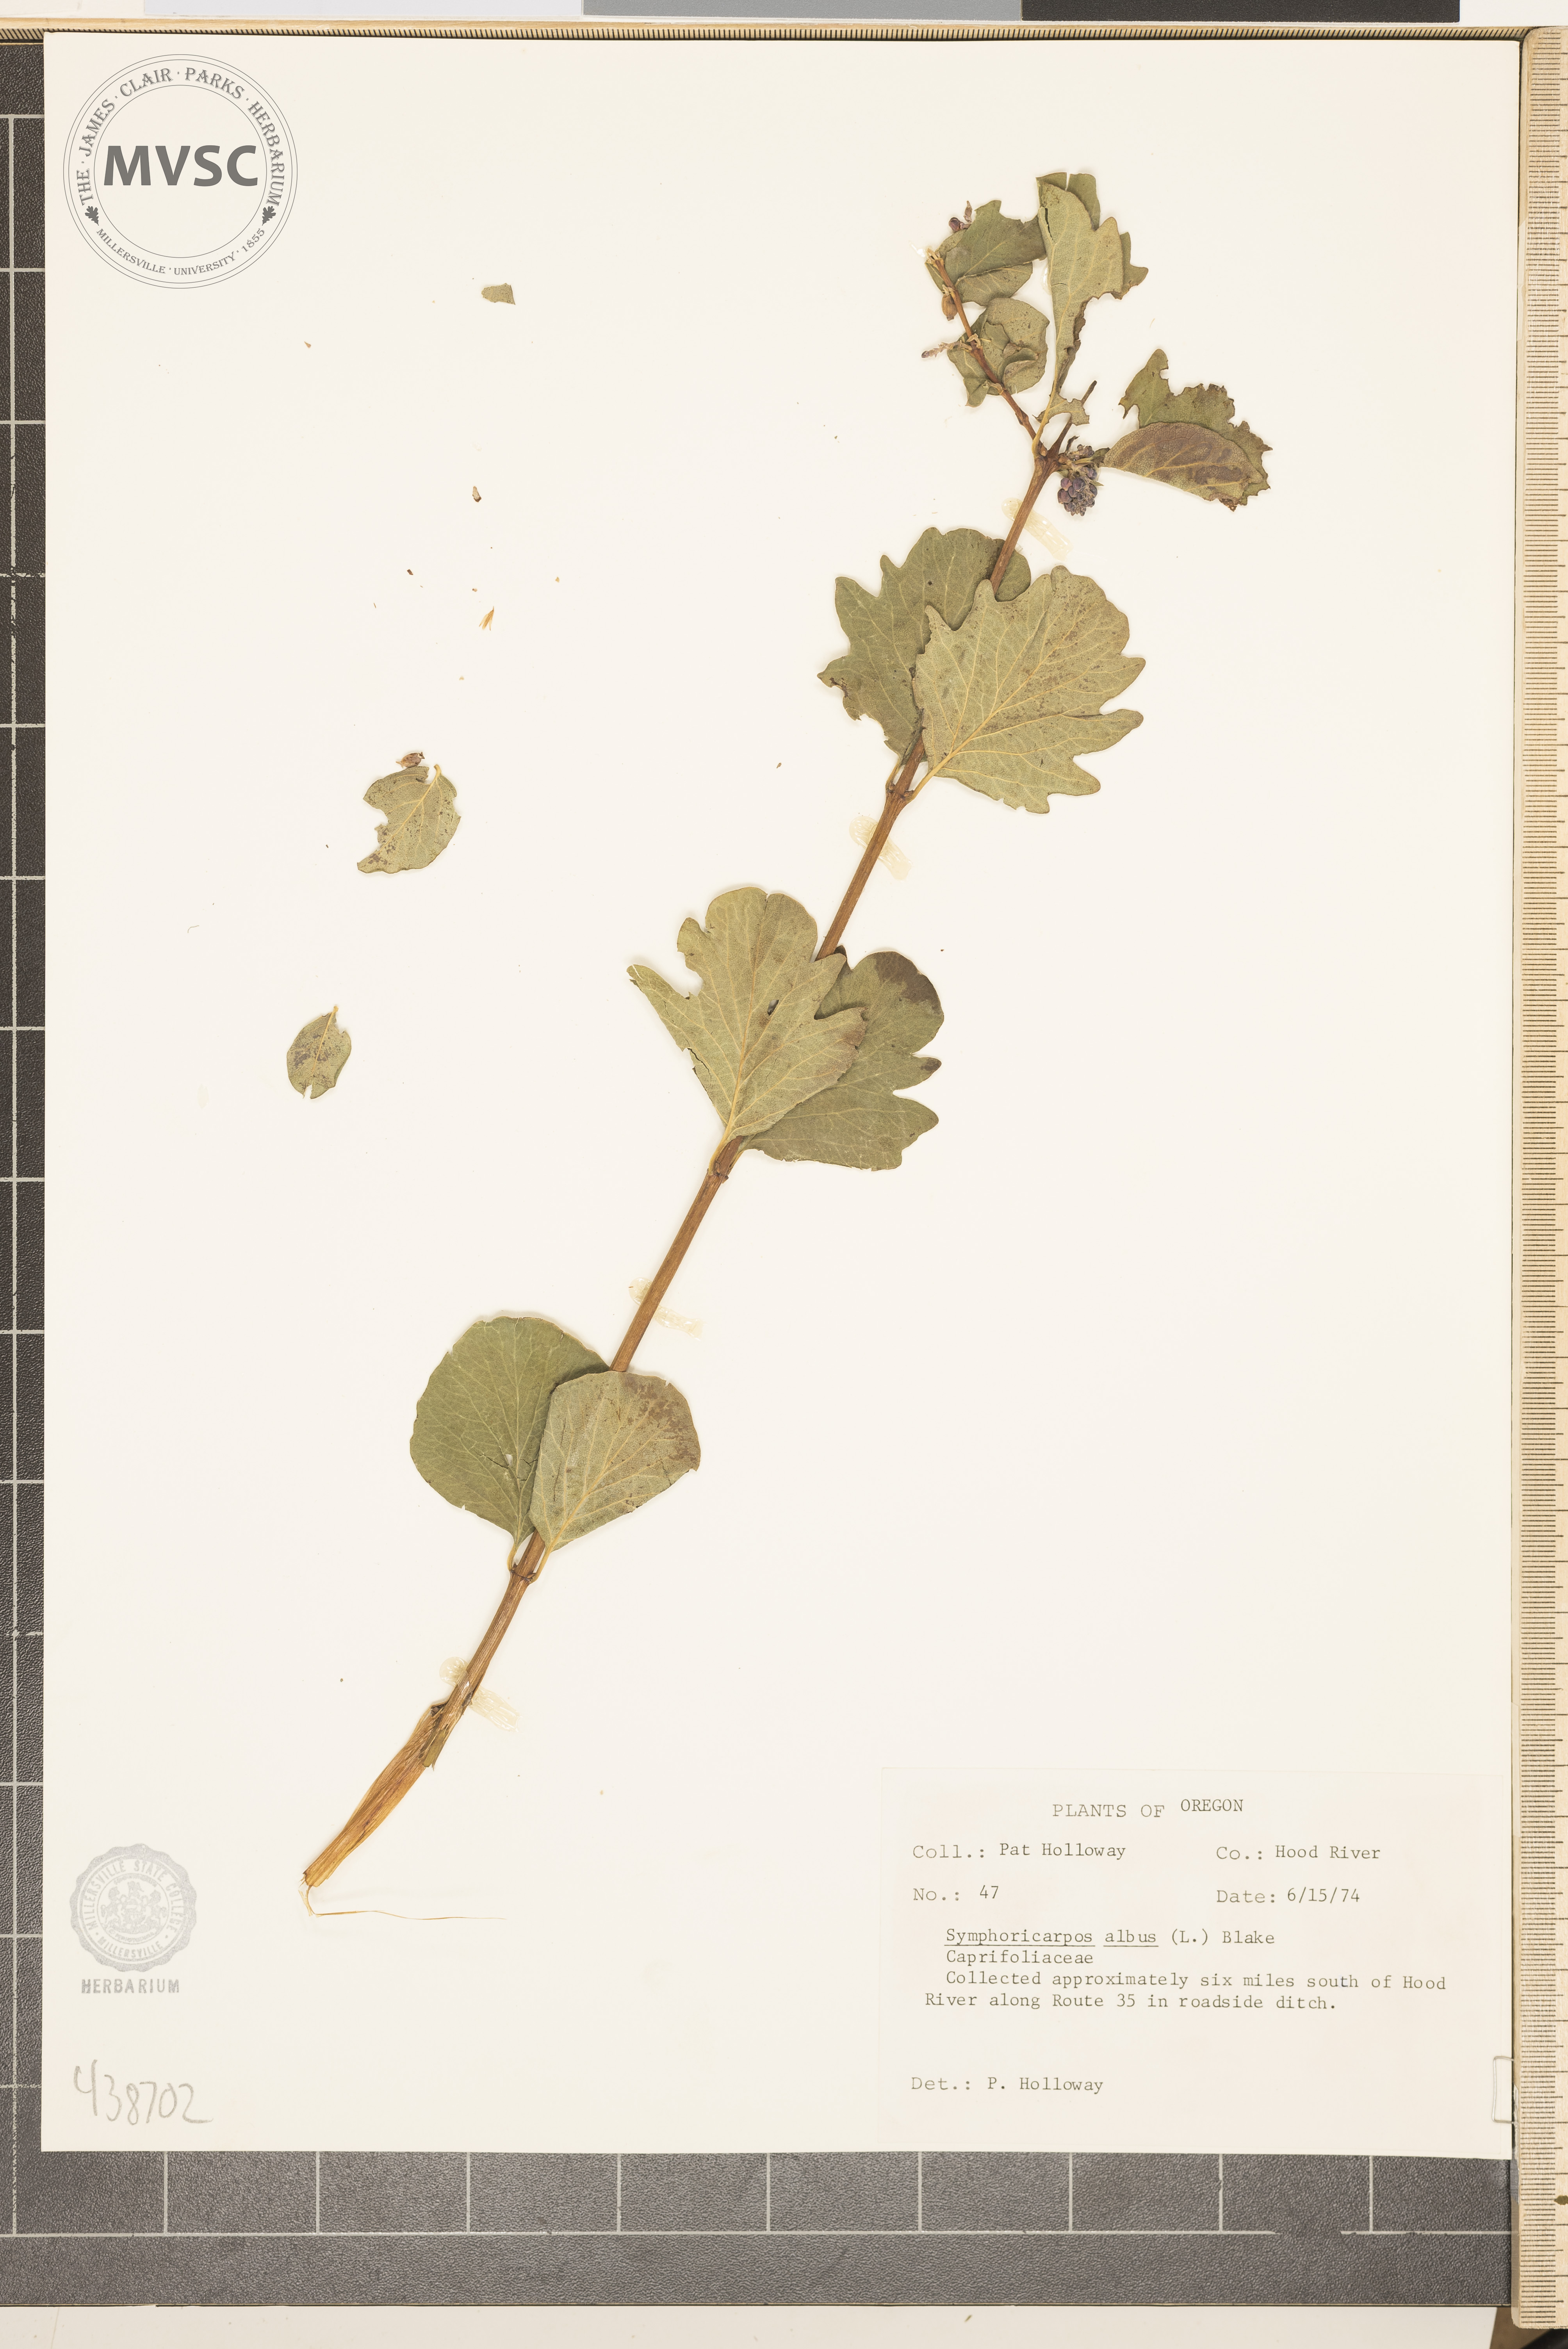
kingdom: Plantae
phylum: Tracheophyta
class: Magnoliopsida
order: Dipsacales
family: Caprifoliaceae
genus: Symphoricarpos
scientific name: Symphoricarpos albus
